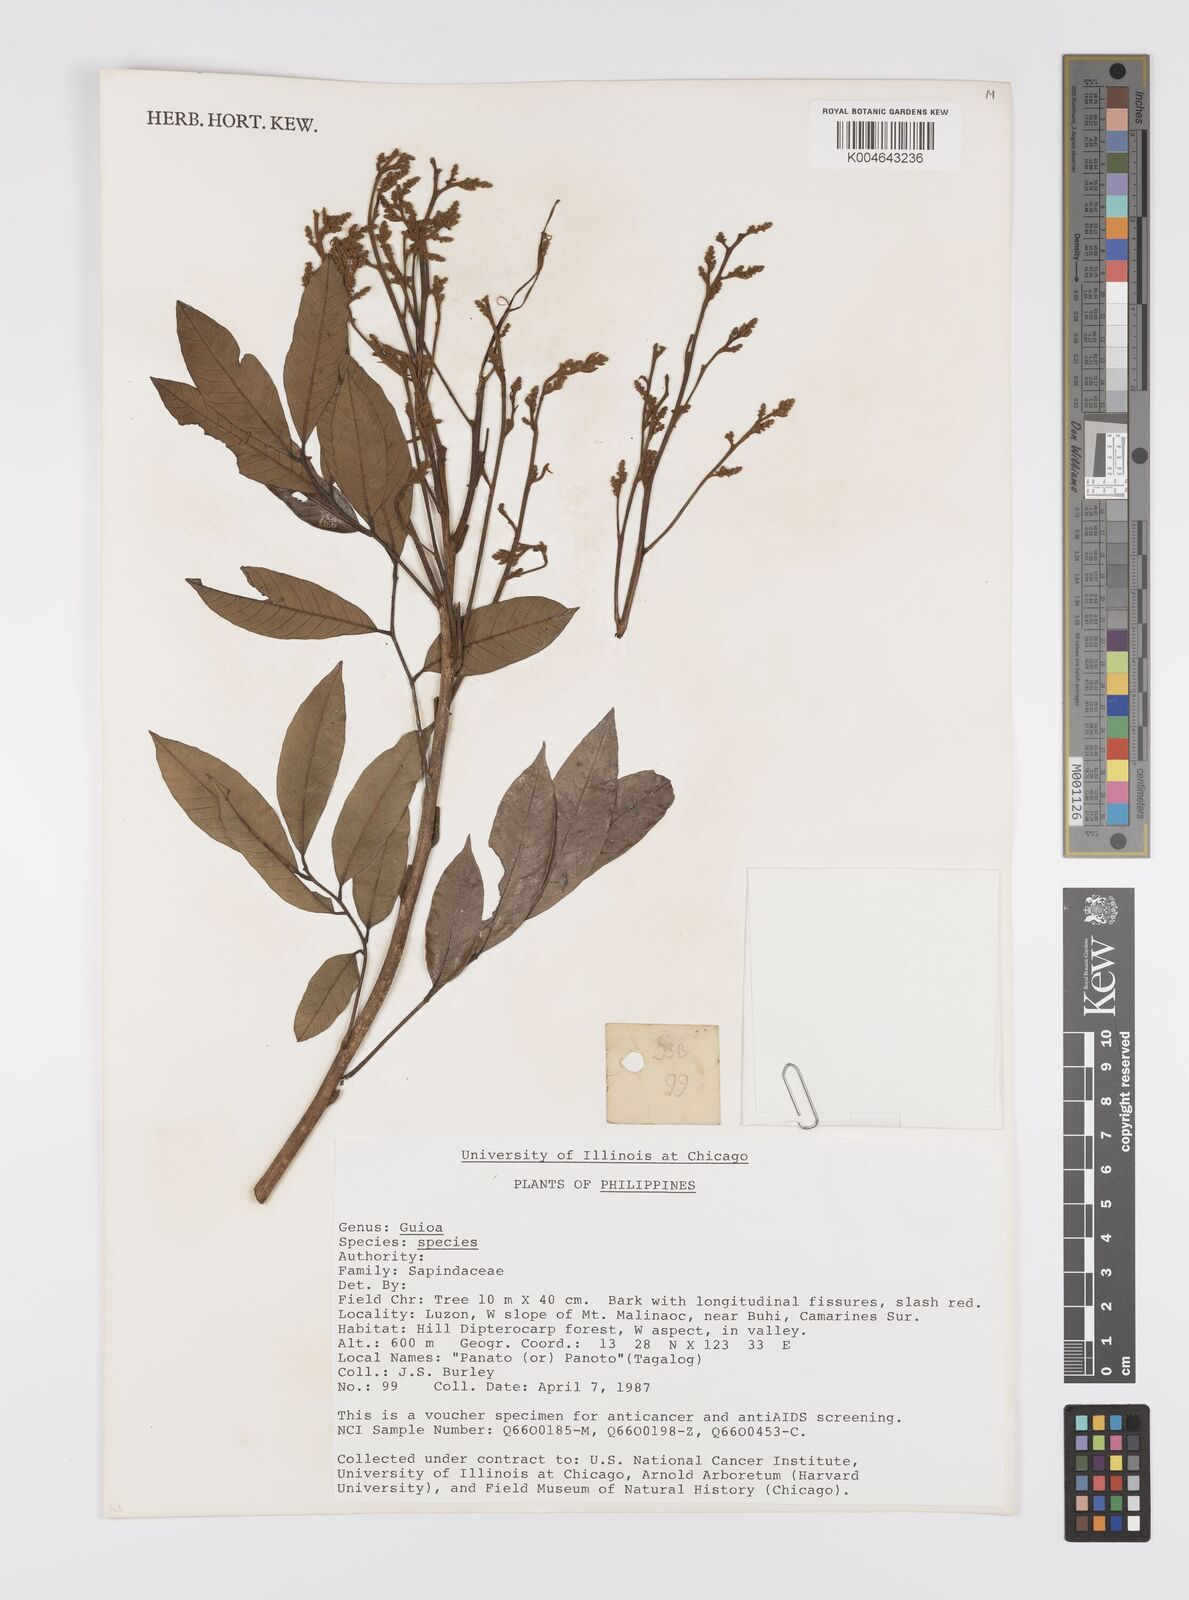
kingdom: Plantae
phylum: Tracheophyta
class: Magnoliopsida
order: Sapindales
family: Sapindaceae
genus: Guioa
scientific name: Guioa
